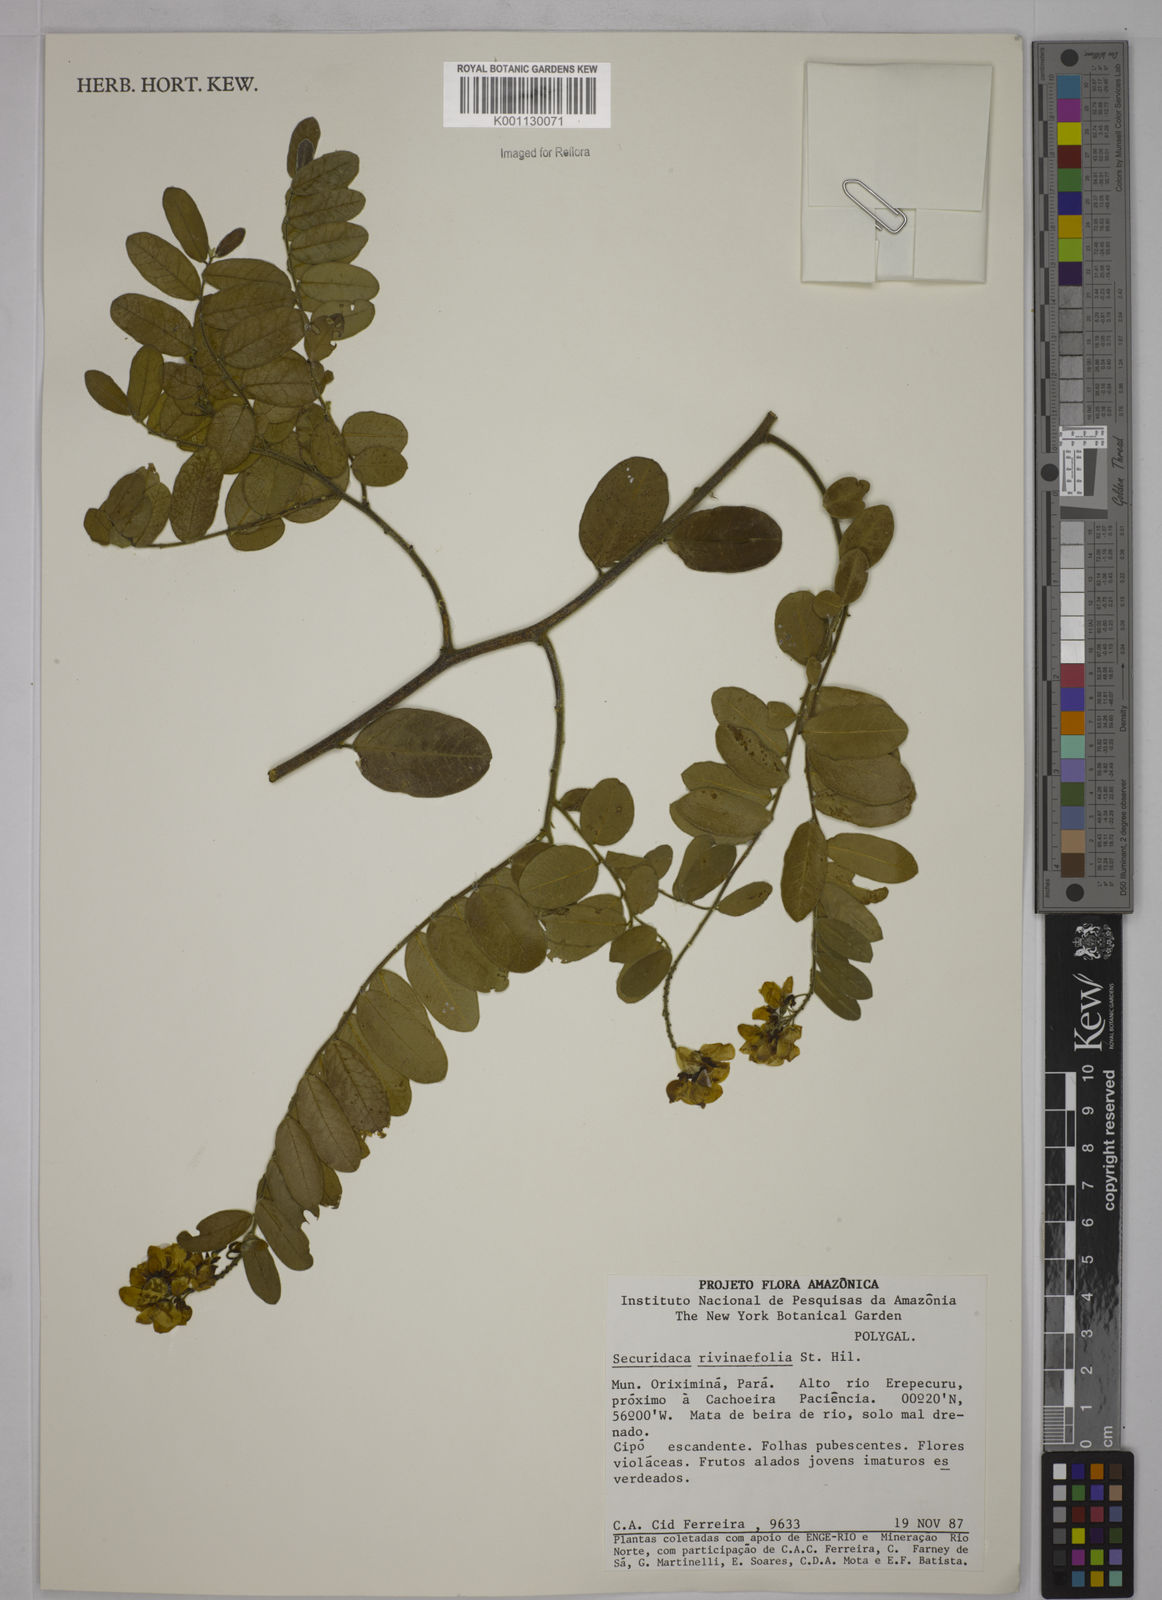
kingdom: Plantae
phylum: Tracheophyta
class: Magnoliopsida
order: Fabales
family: Polygalaceae
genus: Securidaca
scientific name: Securidaca rivinifolia
